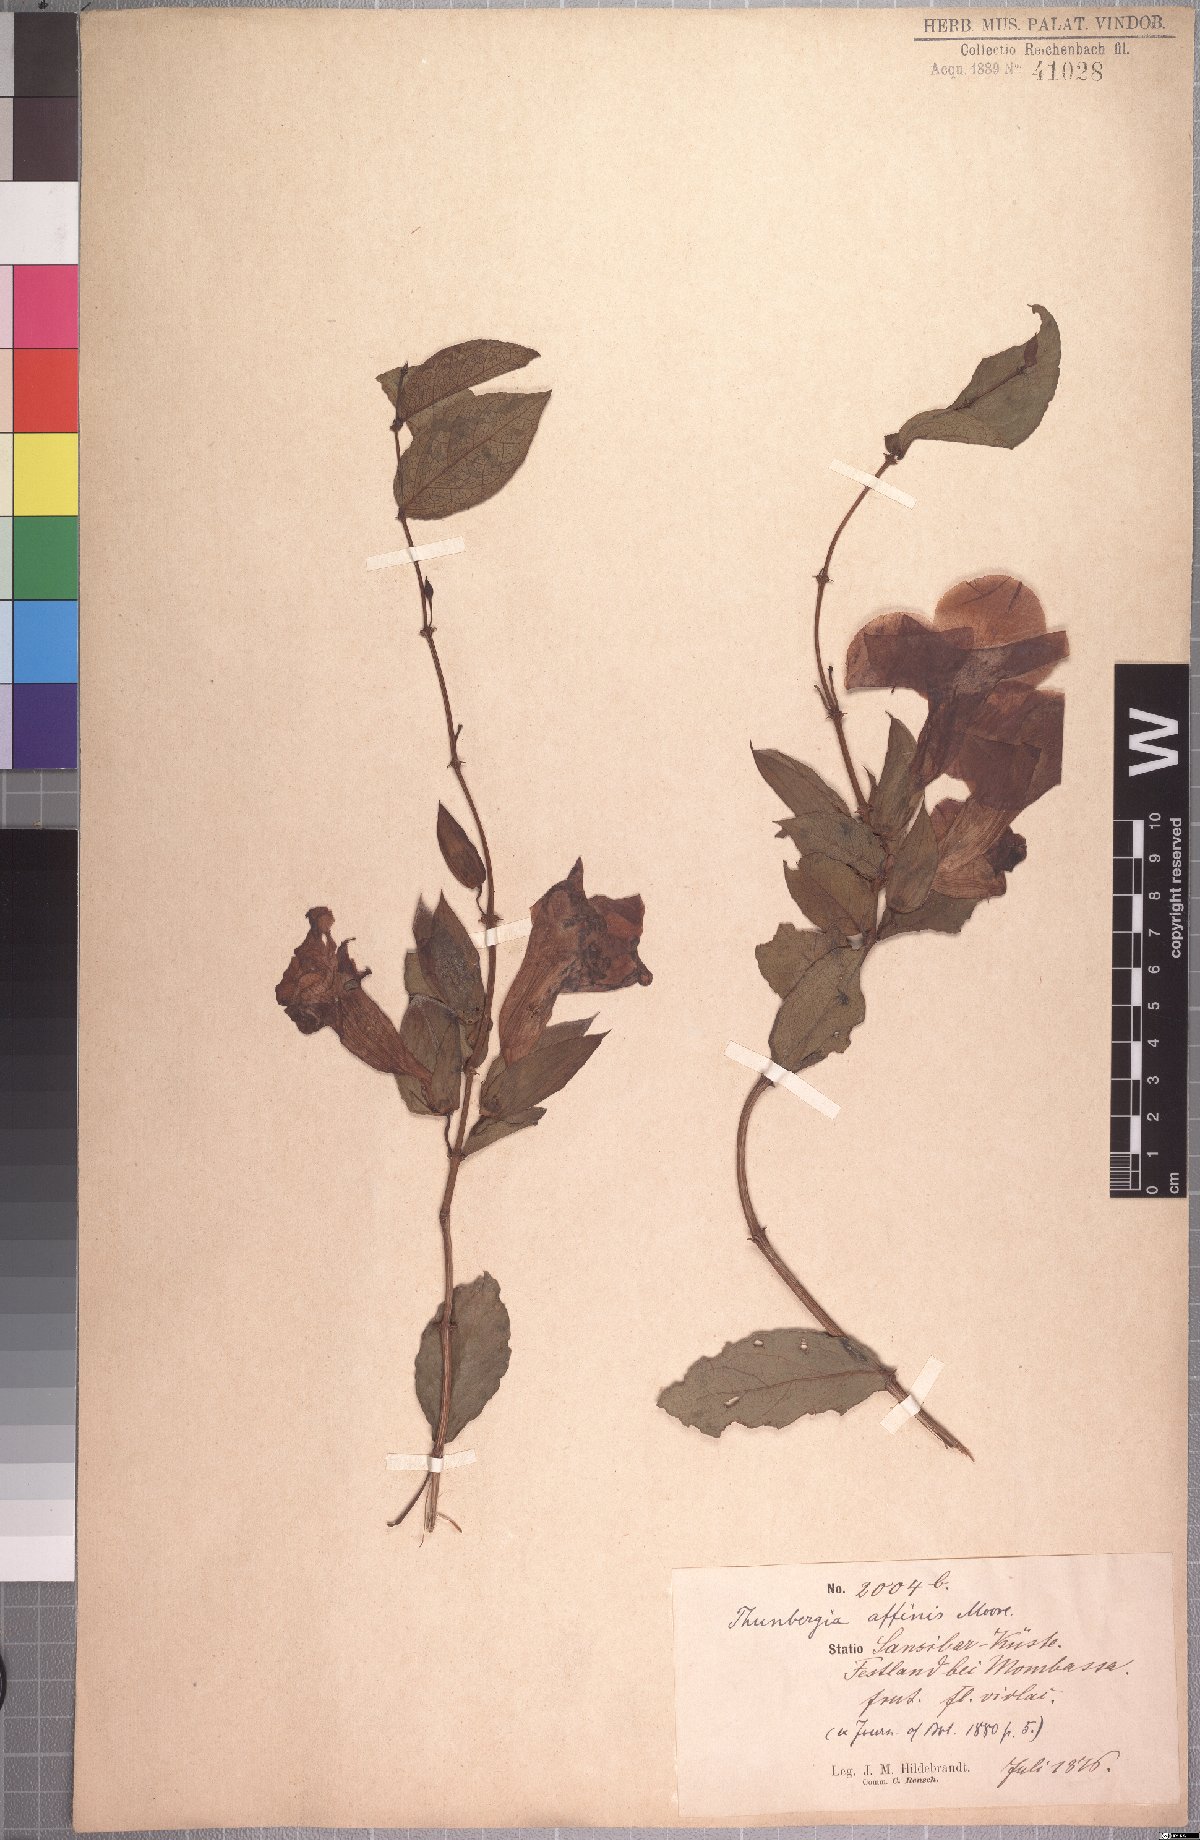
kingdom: Plantae
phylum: Tracheophyta
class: Magnoliopsida
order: Lamiales
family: Acanthaceae
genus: Thunbergia
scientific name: Thunbergia affinis
